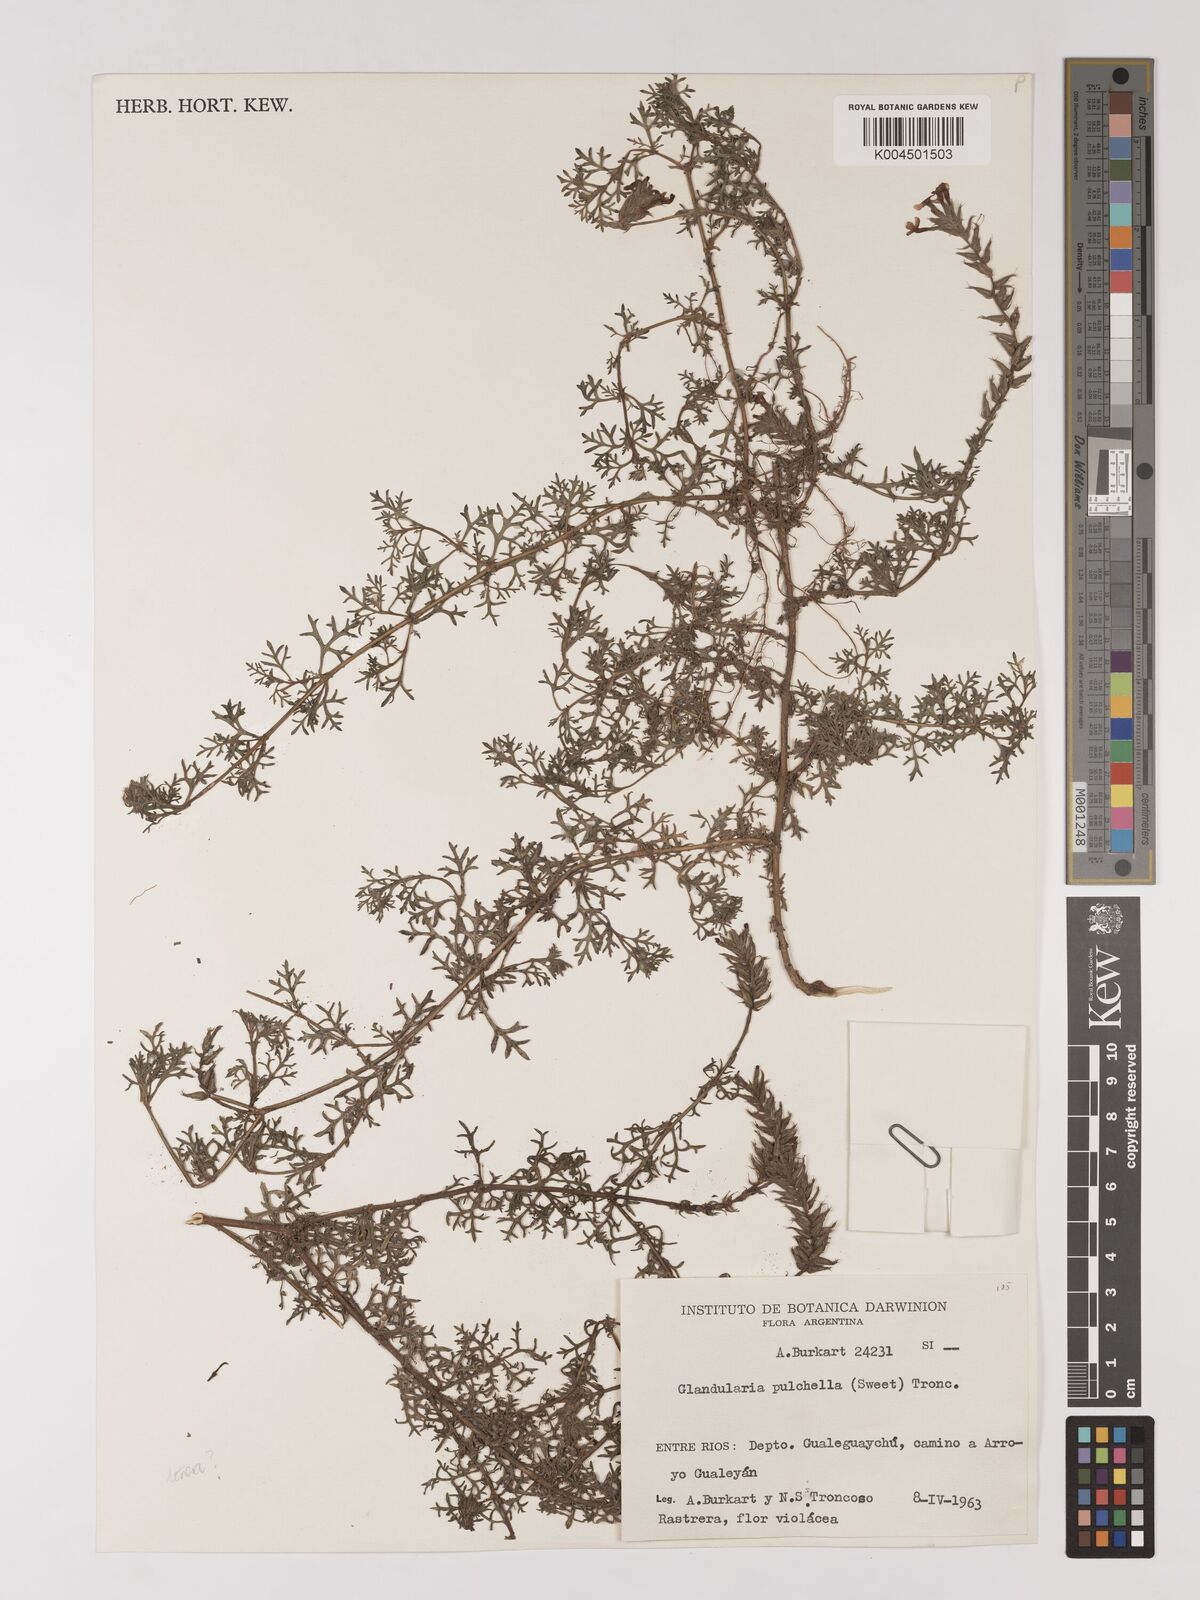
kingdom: Plantae
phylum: Tracheophyta
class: Magnoliopsida
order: Lamiales
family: Verbenaceae
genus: Verbena
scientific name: Verbena tenera
